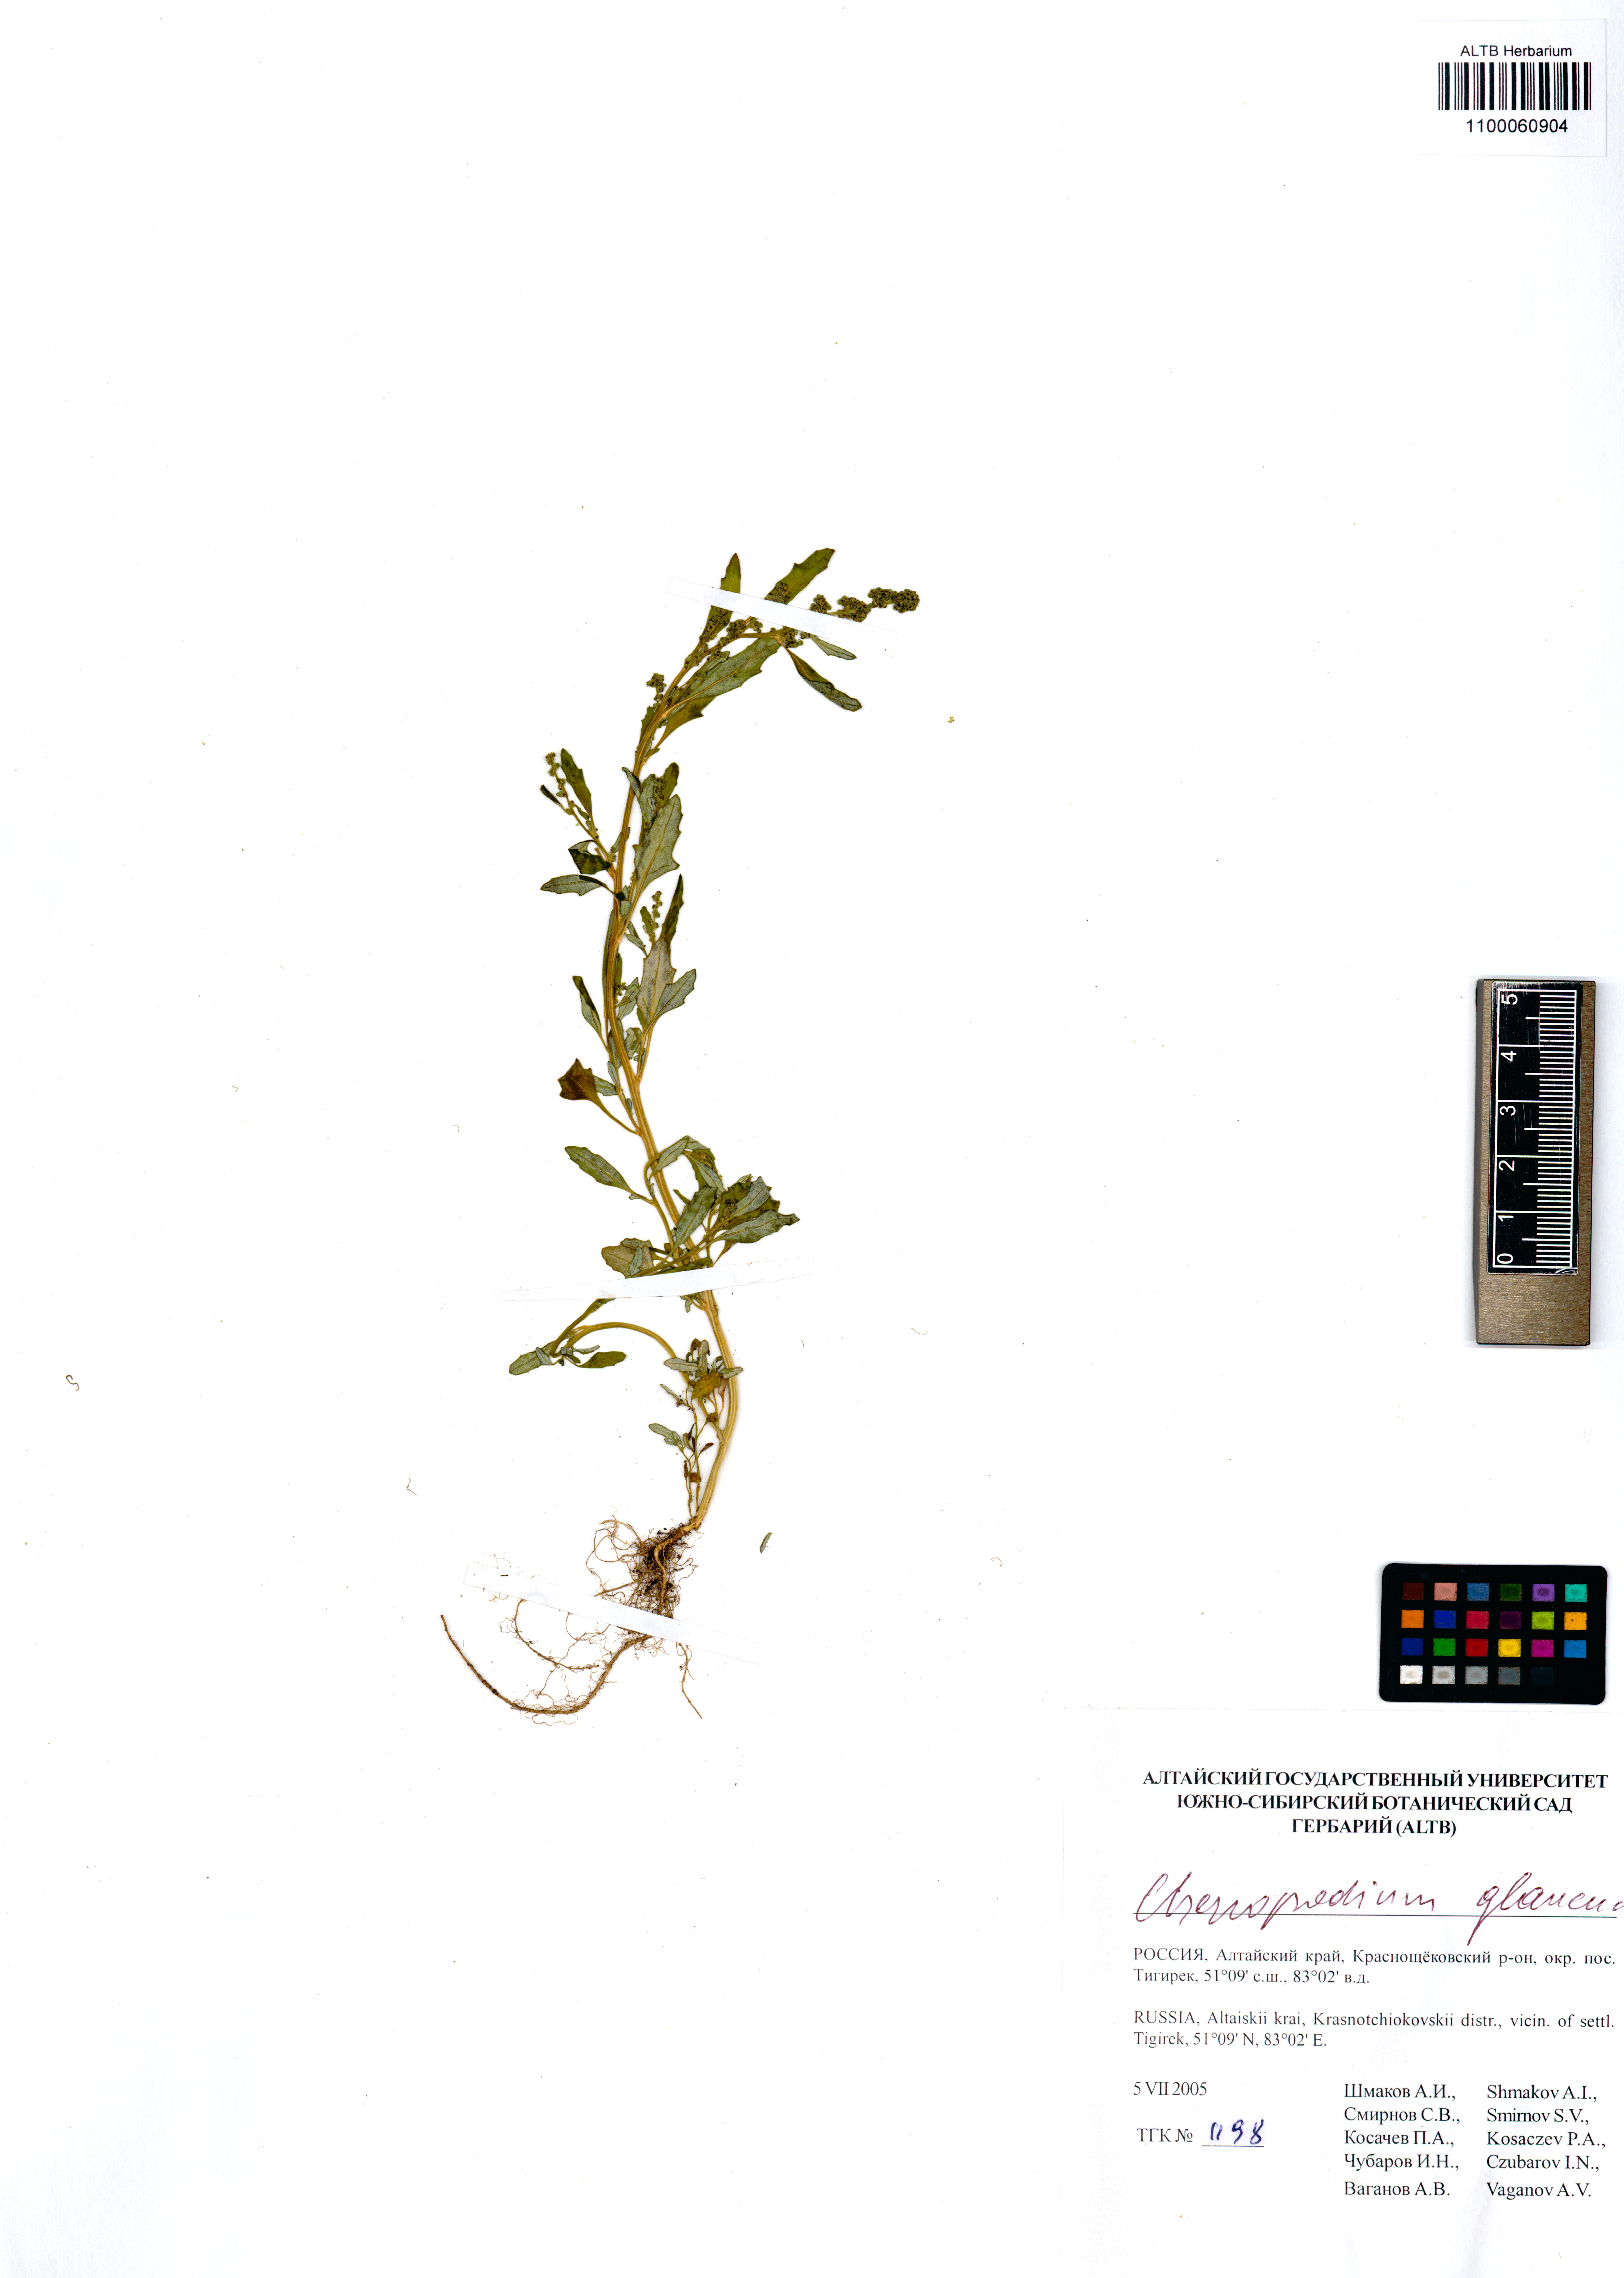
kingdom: Plantae
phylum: Tracheophyta
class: Magnoliopsida
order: Caryophyllales
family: Amaranthaceae
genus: Oxybasis
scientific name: Oxybasis glauca
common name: Glaucous goosefoot
